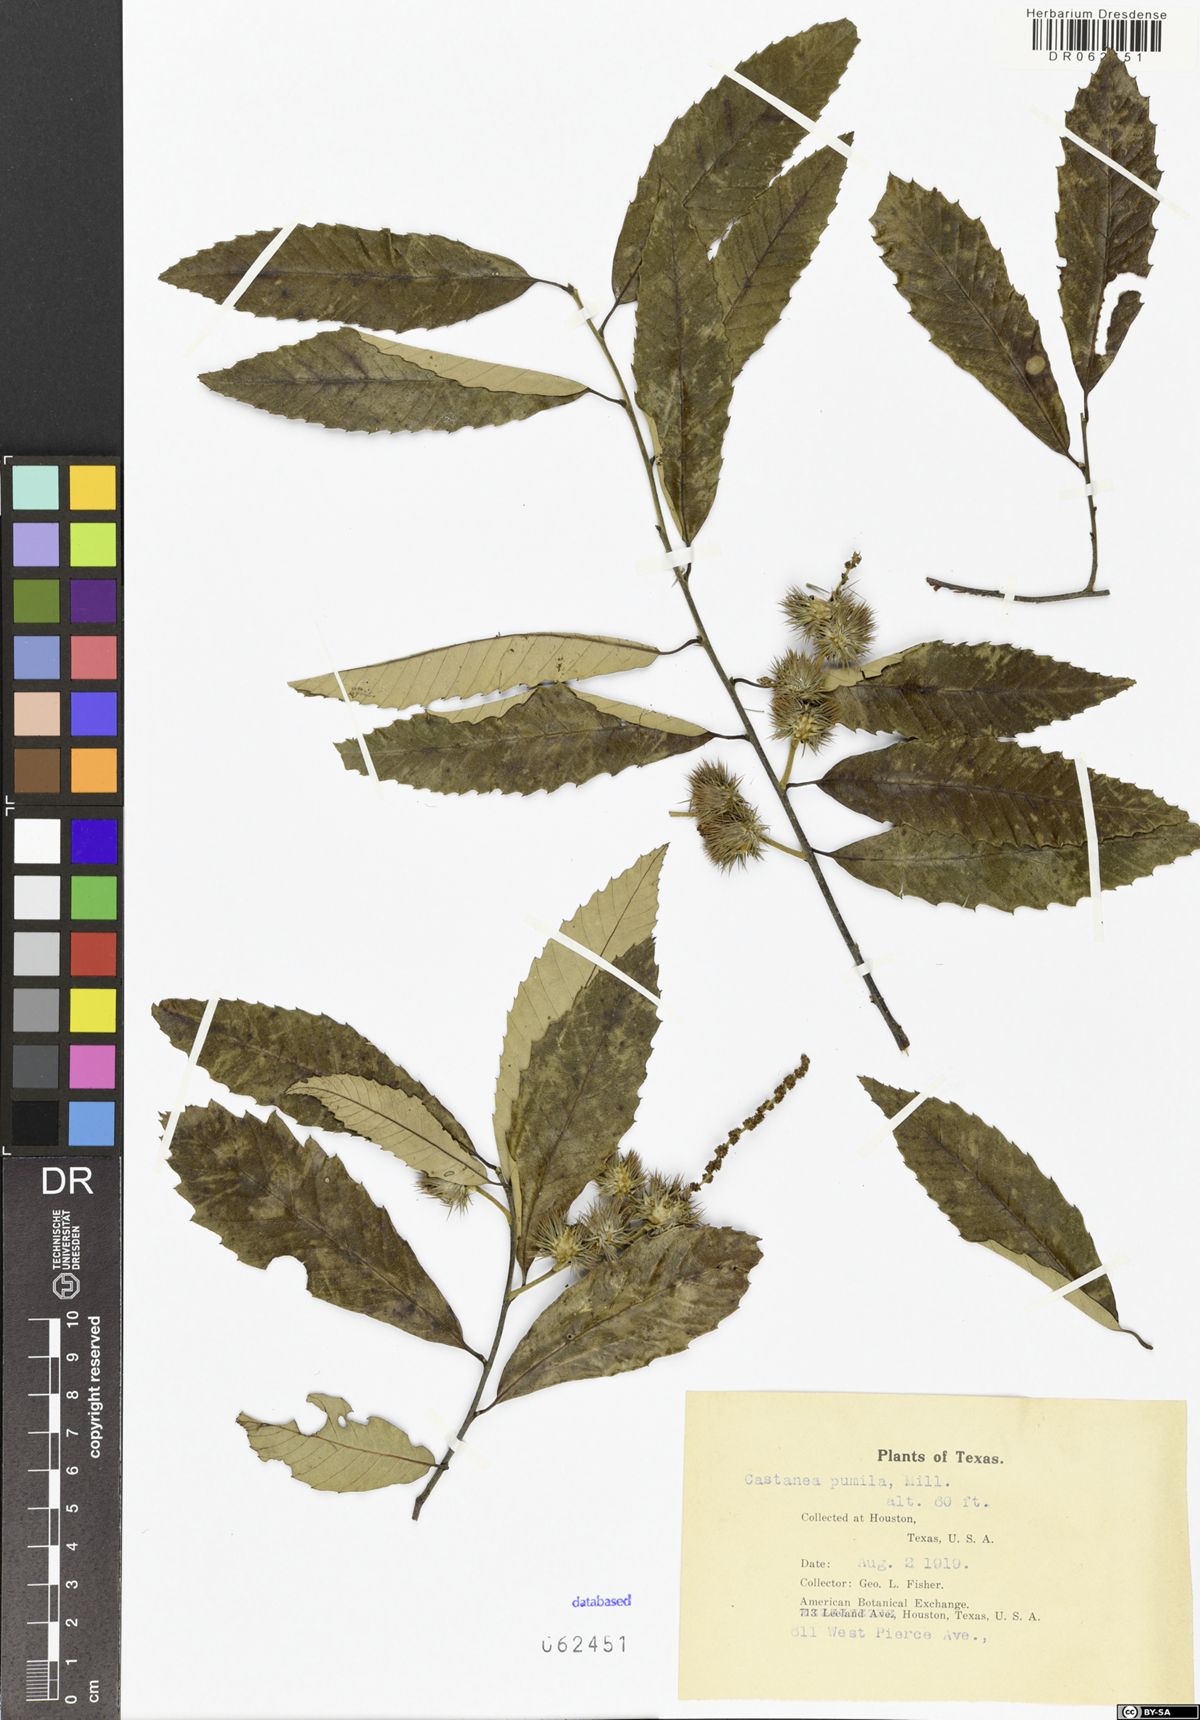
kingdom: Plantae
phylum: Tracheophyta
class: Magnoliopsida
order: Fagales
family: Fagaceae
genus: Castanea
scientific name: Castanea pumila
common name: Chinkapin
